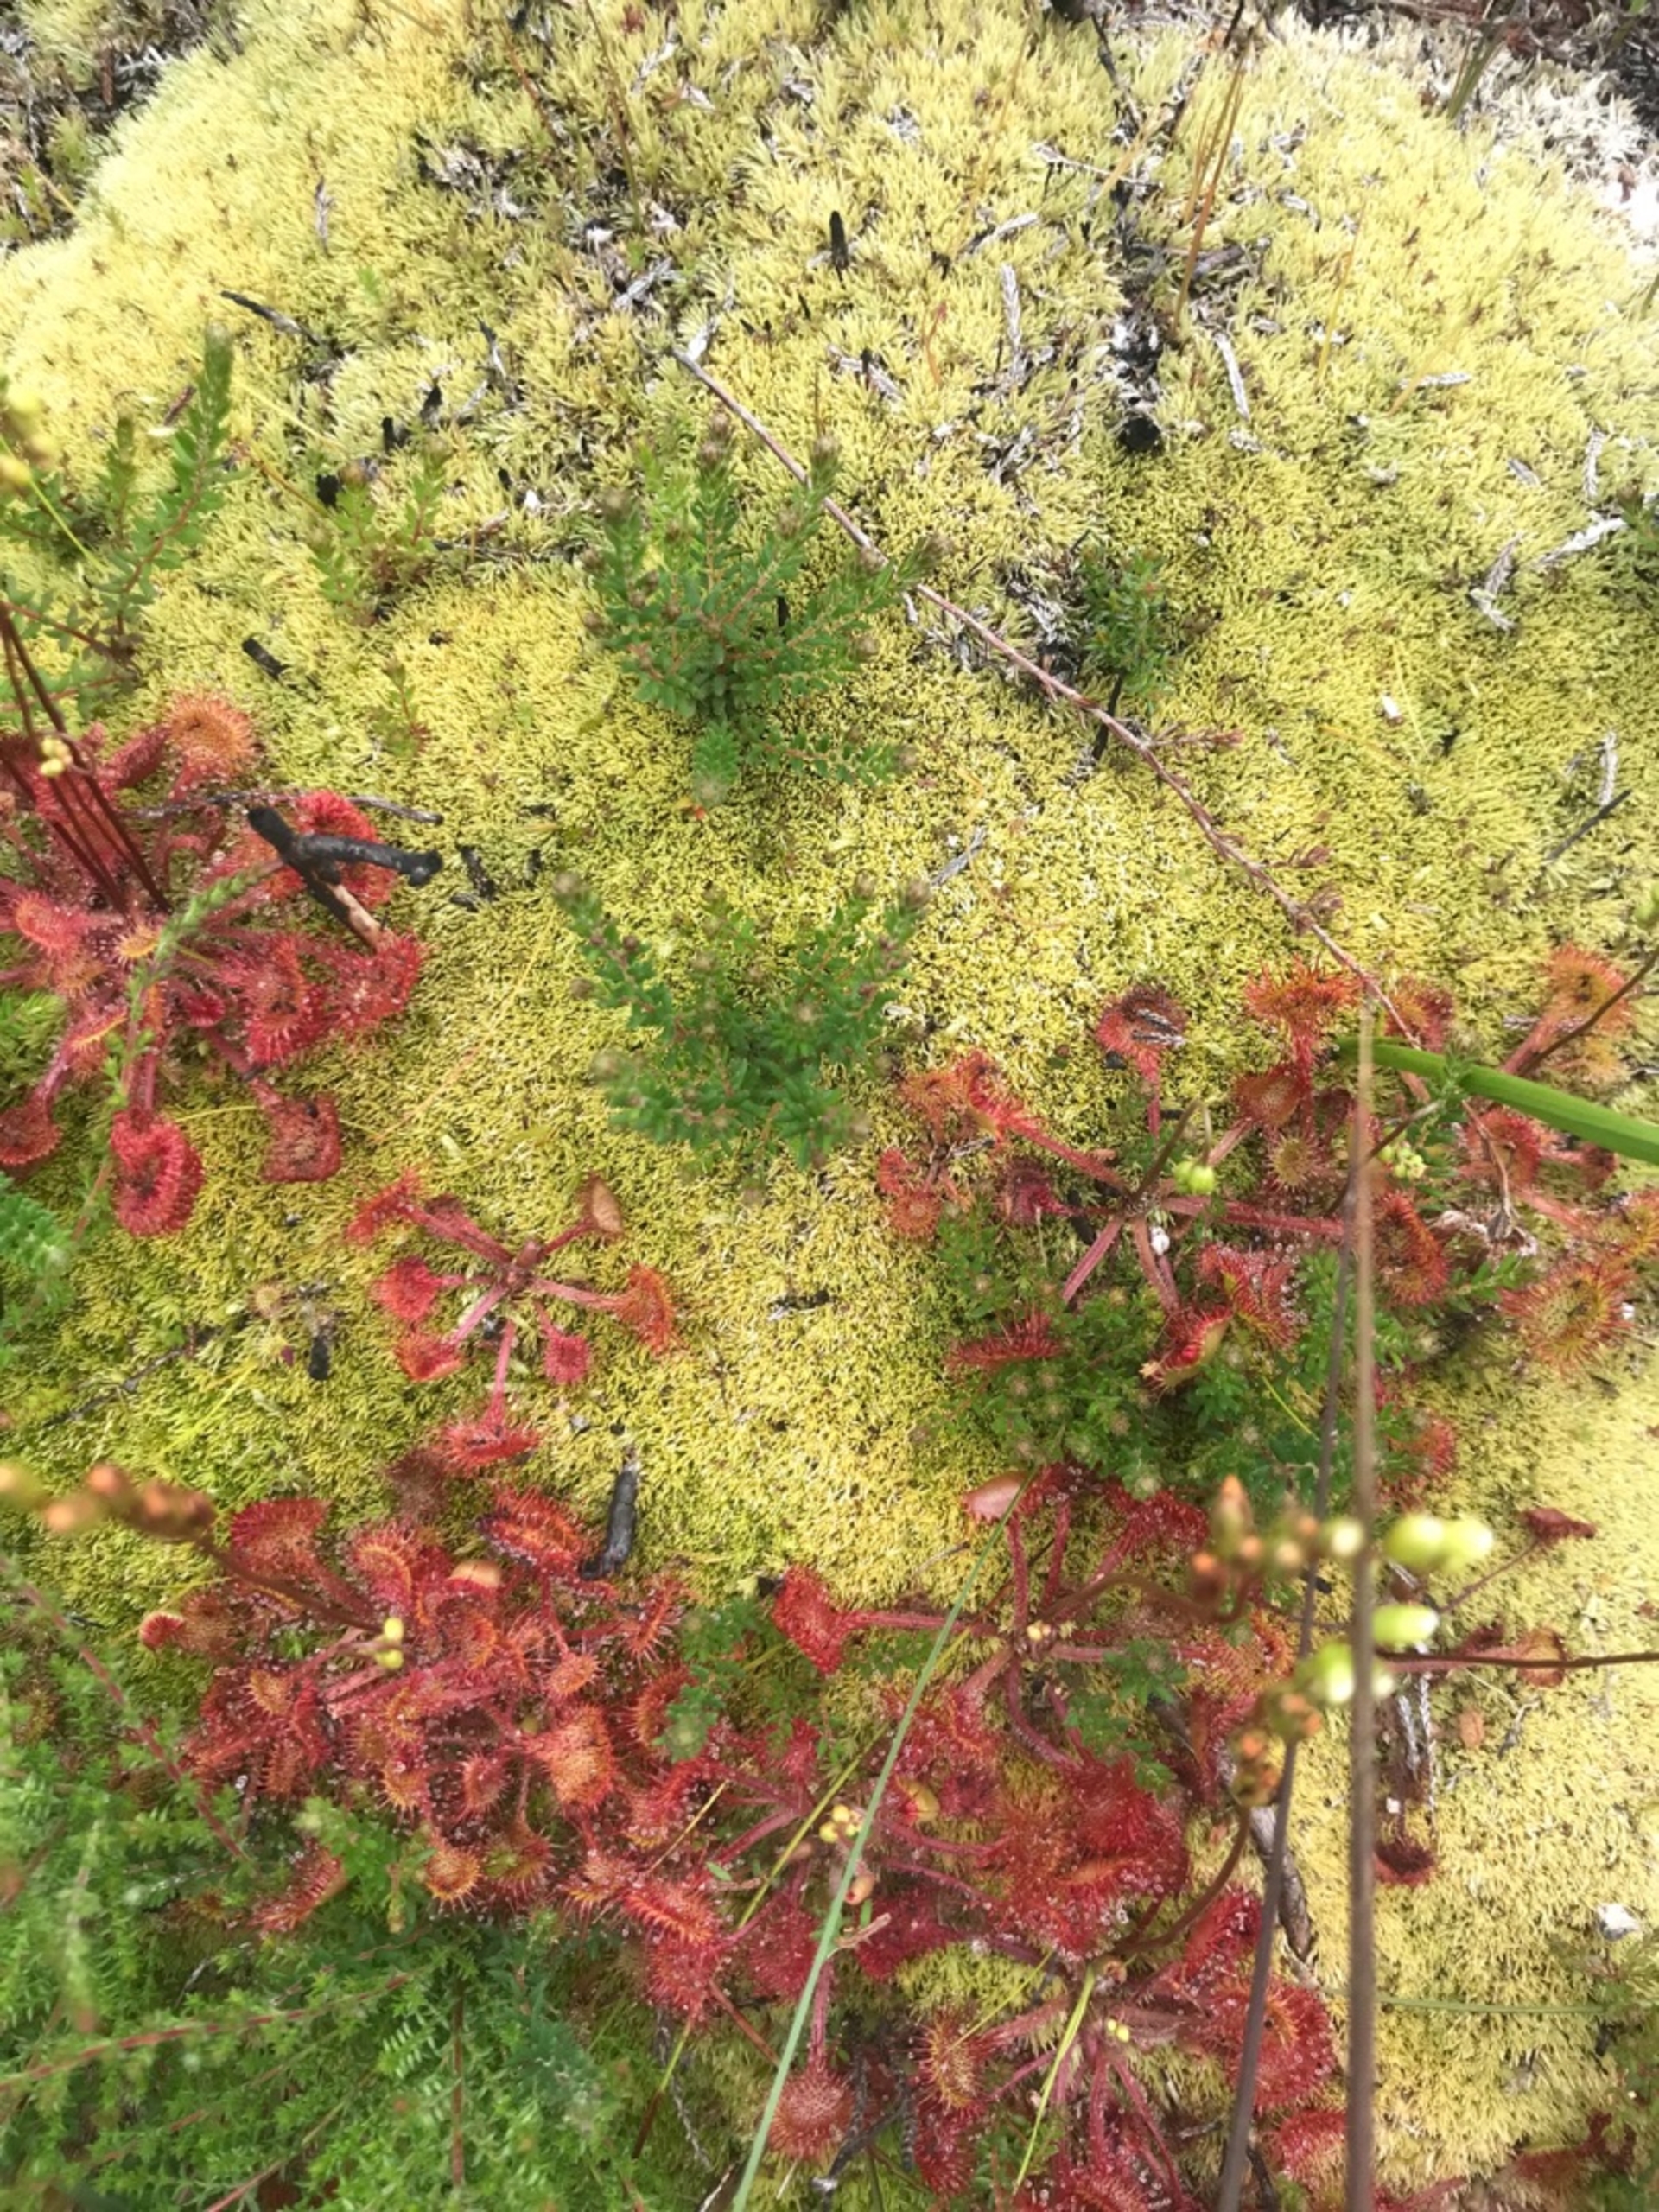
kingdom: Plantae
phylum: Tracheophyta
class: Magnoliopsida
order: Caryophyllales
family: Droseraceae
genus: Drosera
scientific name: Drosera rotundifolia
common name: Rundbladet soldug
